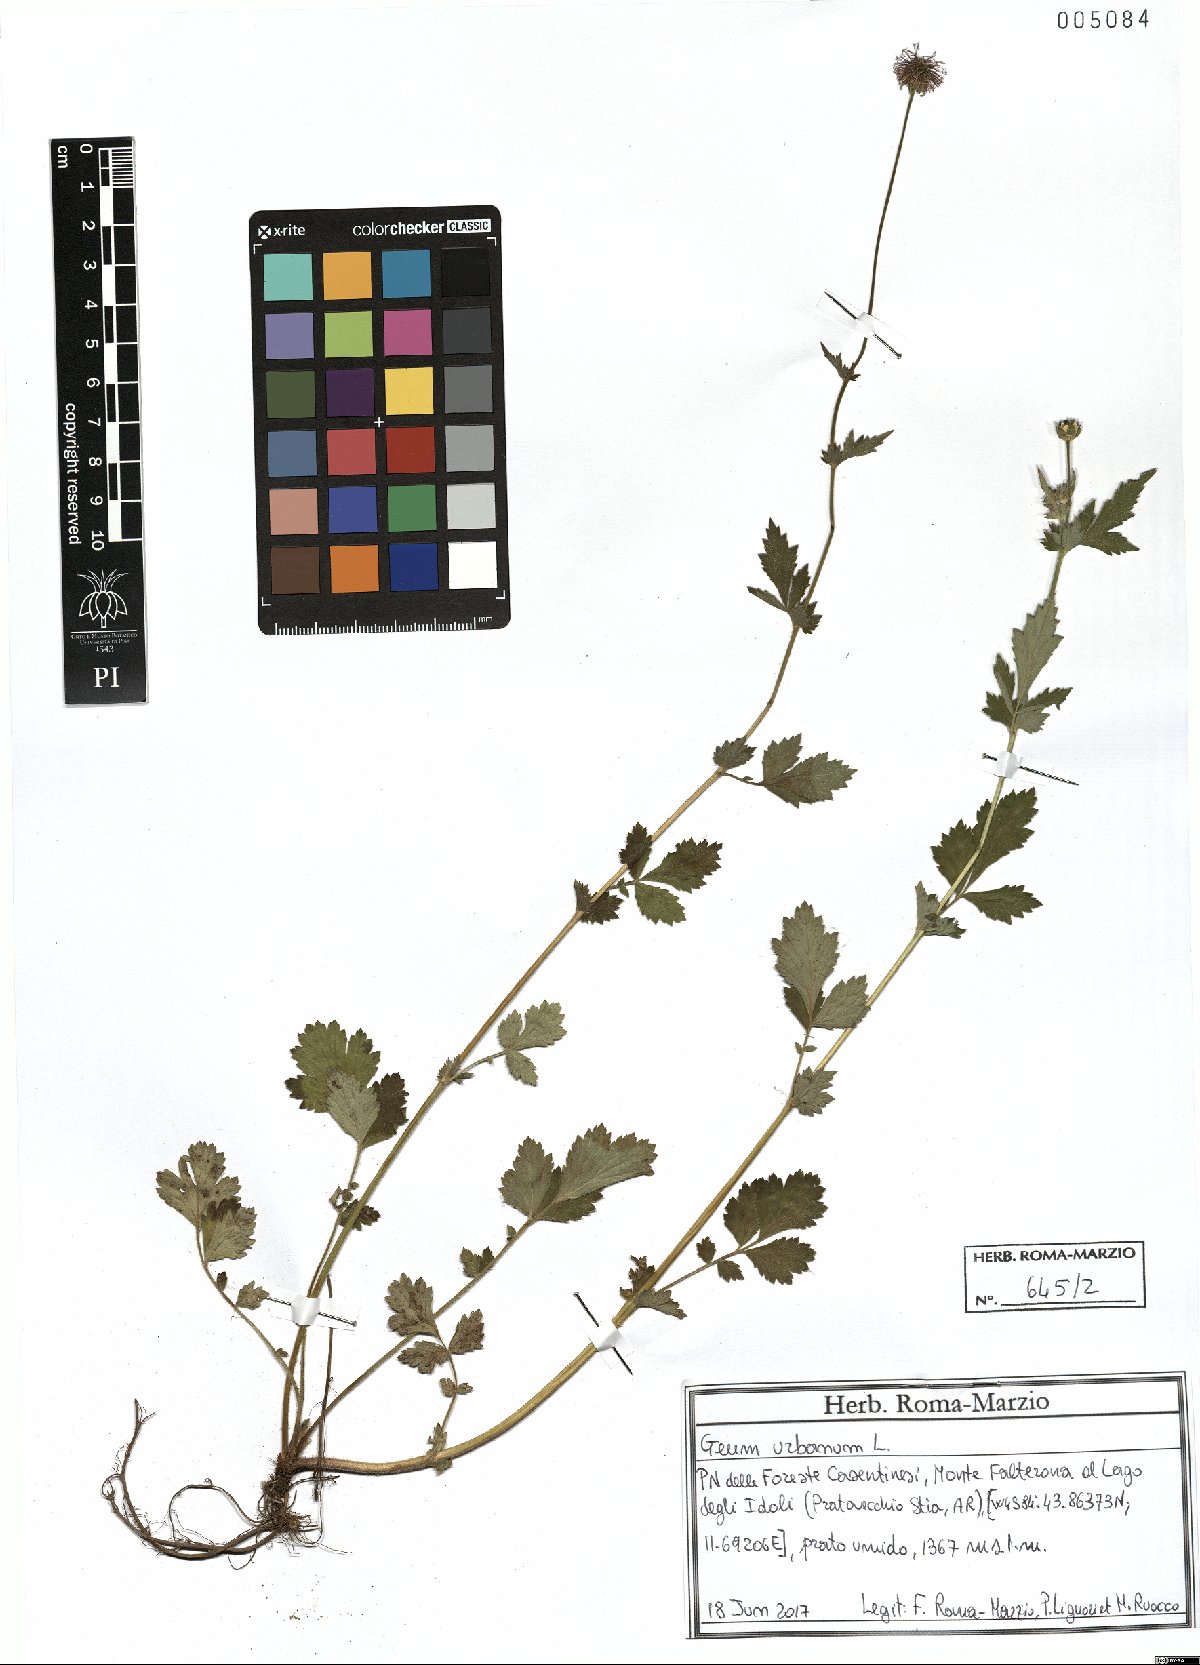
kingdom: Plantae
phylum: Tracheophyta
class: Magnoliopsida
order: Rosales
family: Rosaceae
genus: Geum
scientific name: Geum urbanum
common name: Wood avens
